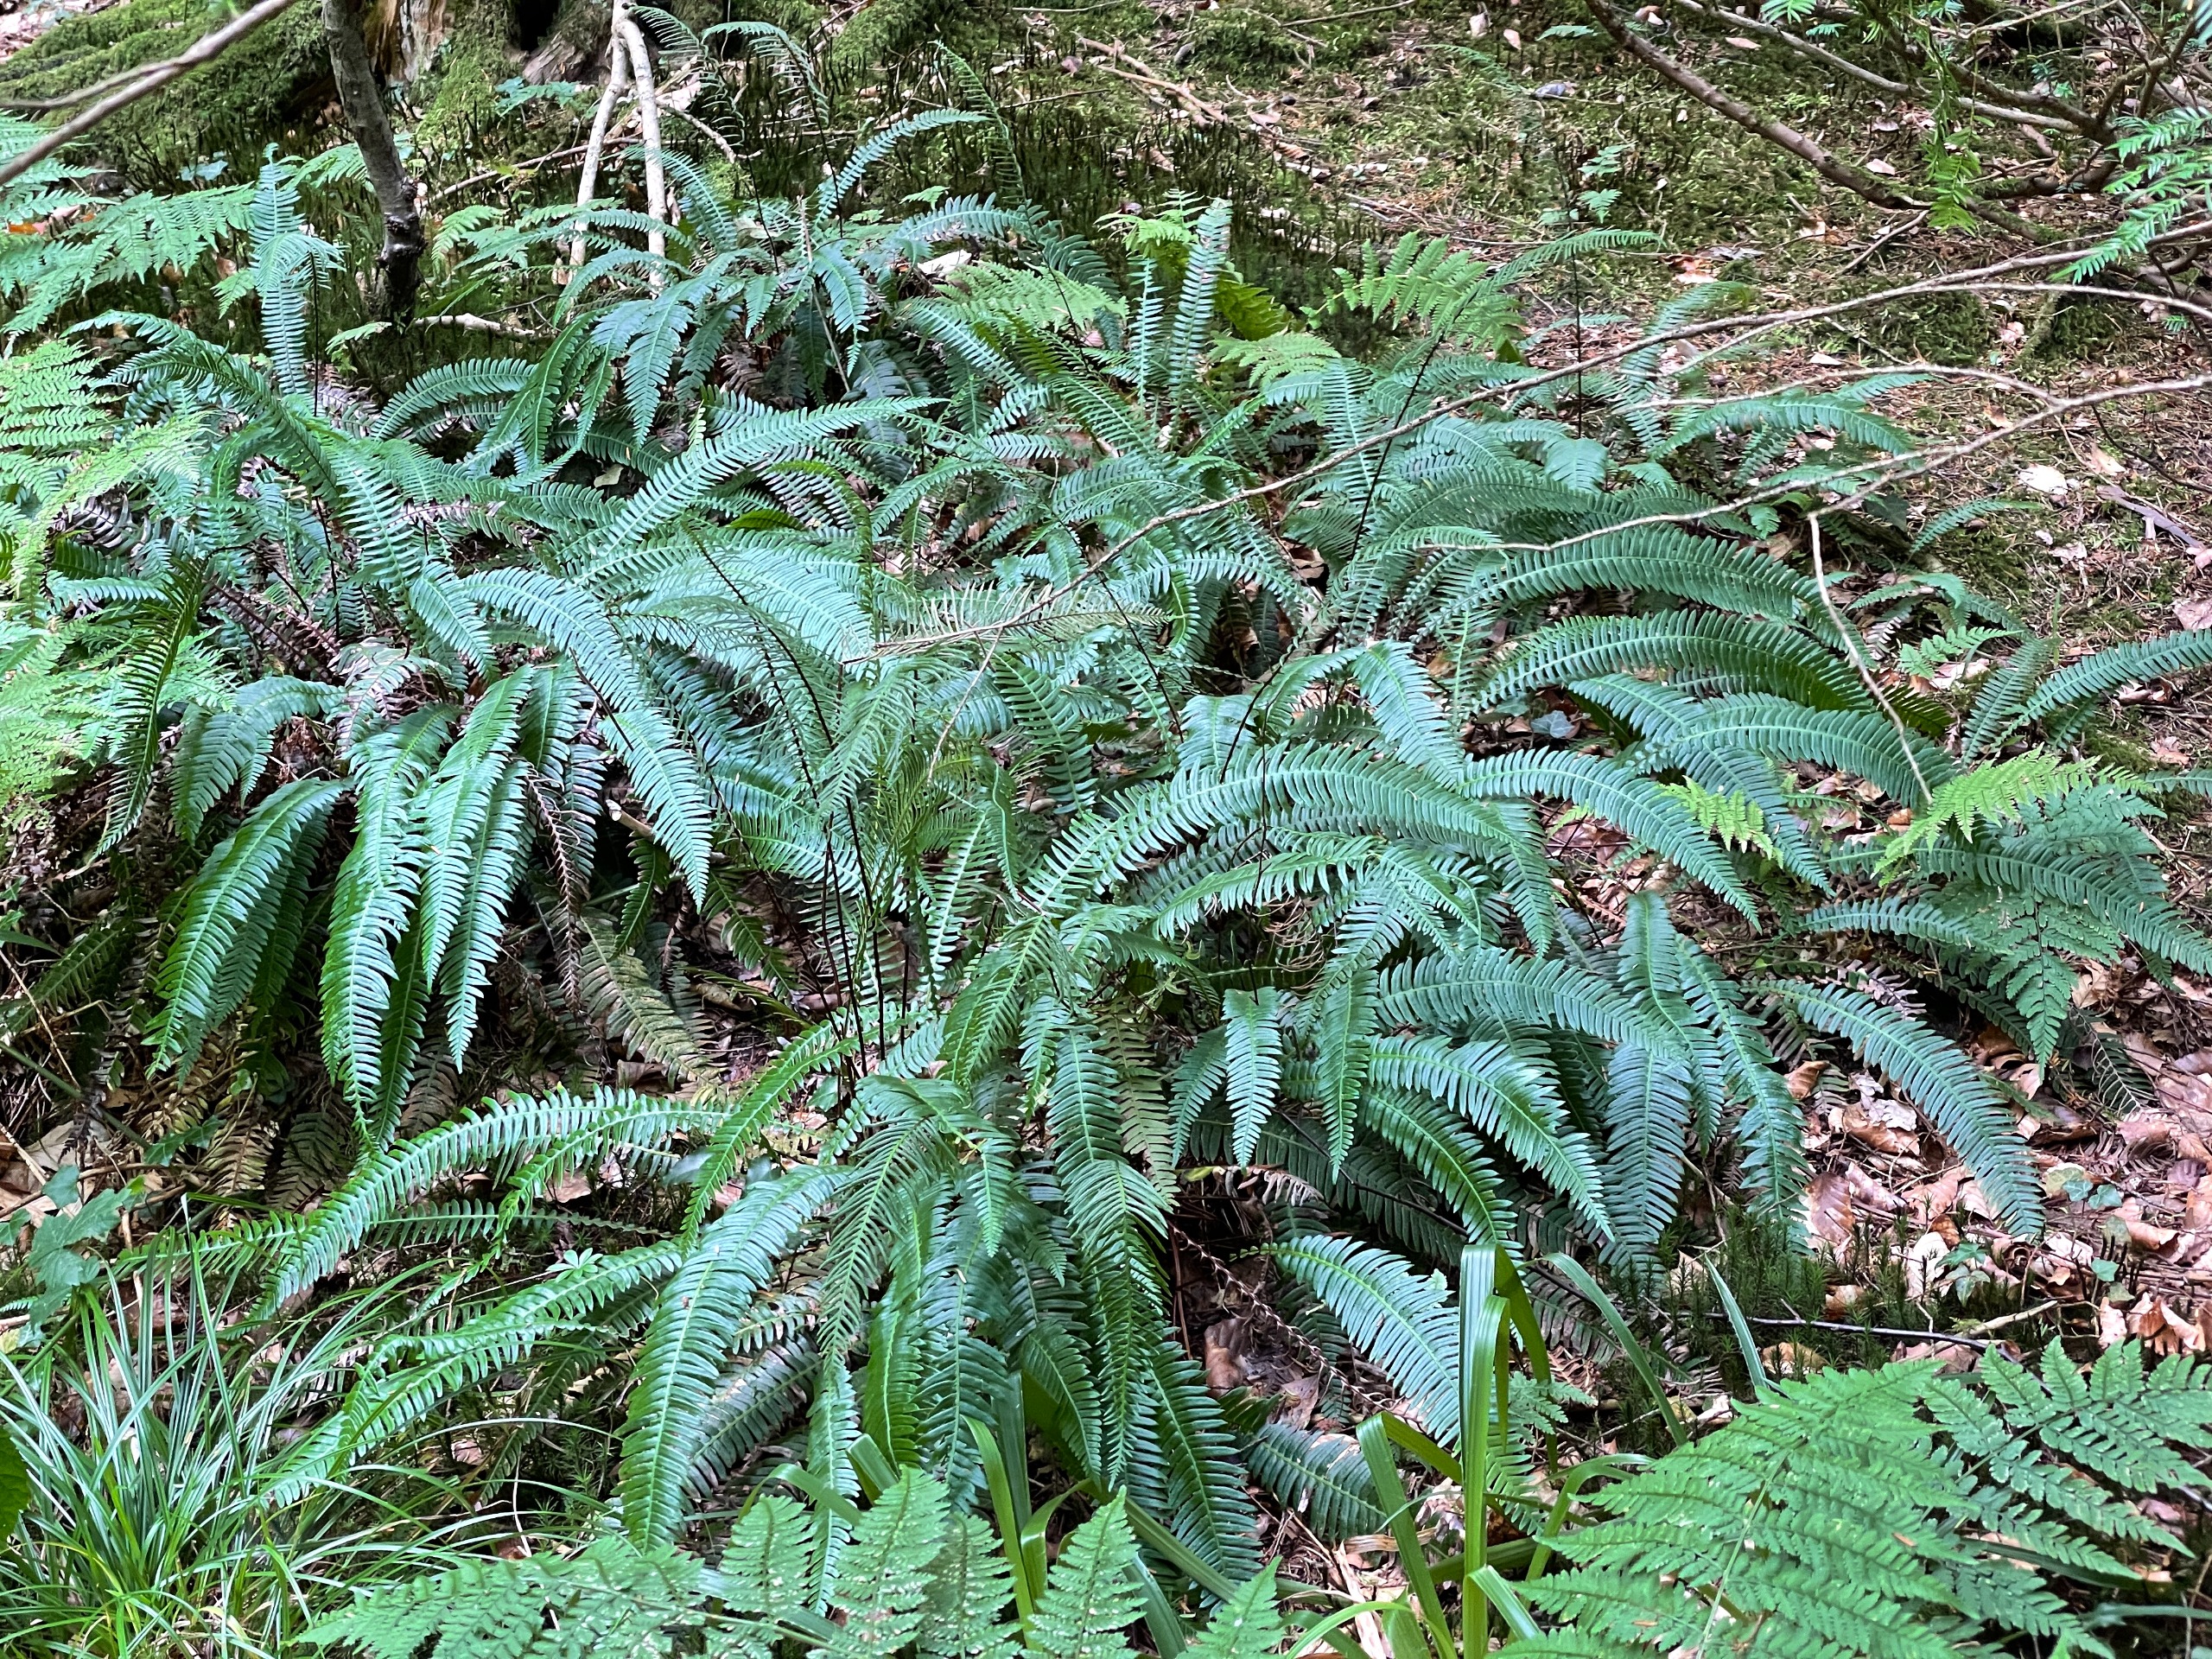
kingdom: Plantae
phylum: Tracheophyta
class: Polypodiopsida
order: Polypodiales
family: Blechnaceae
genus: Struthiopteris
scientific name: Struthiopteris spicant
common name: Kambregne
